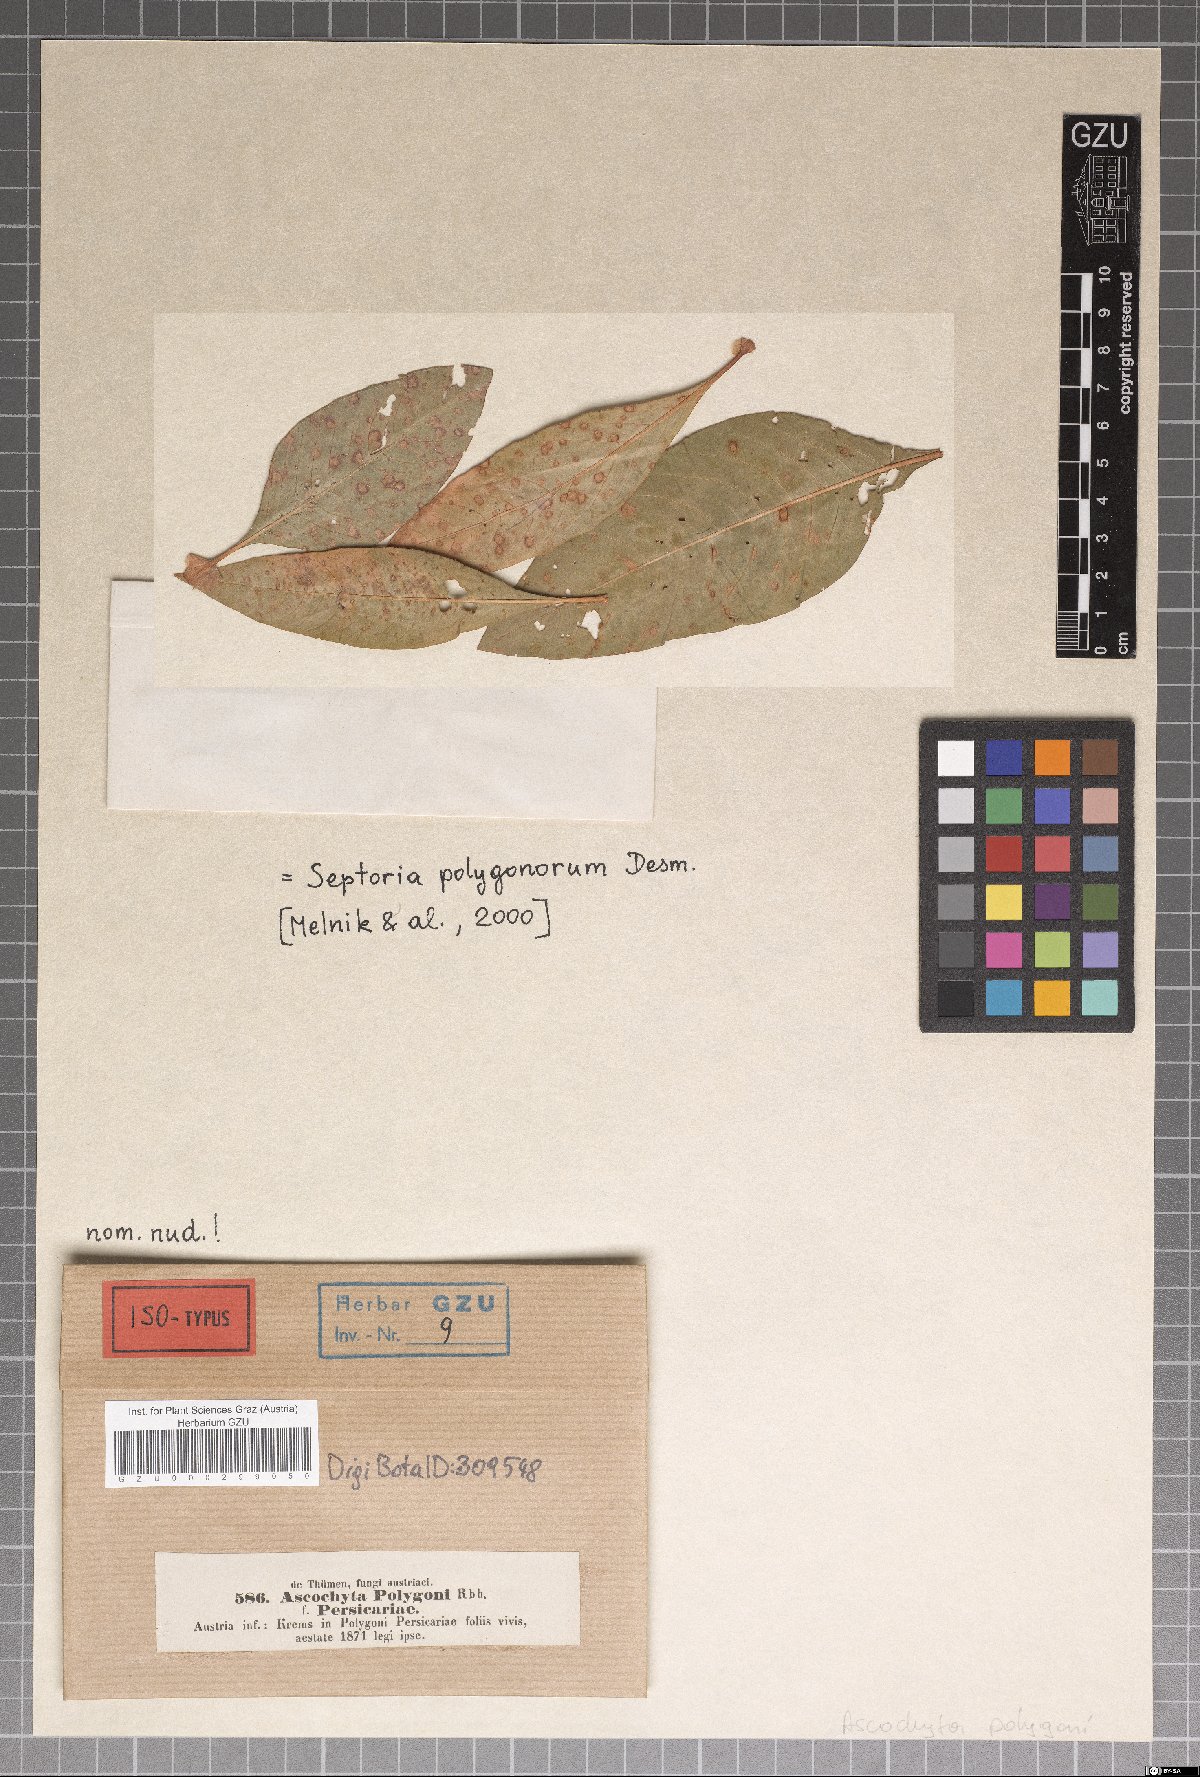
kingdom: Fungi
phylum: Ascomycota
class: Dothideomycetes
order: Pleosporales
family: Didymellaceae
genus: Ascochyta
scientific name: Ascochyta polygoni
